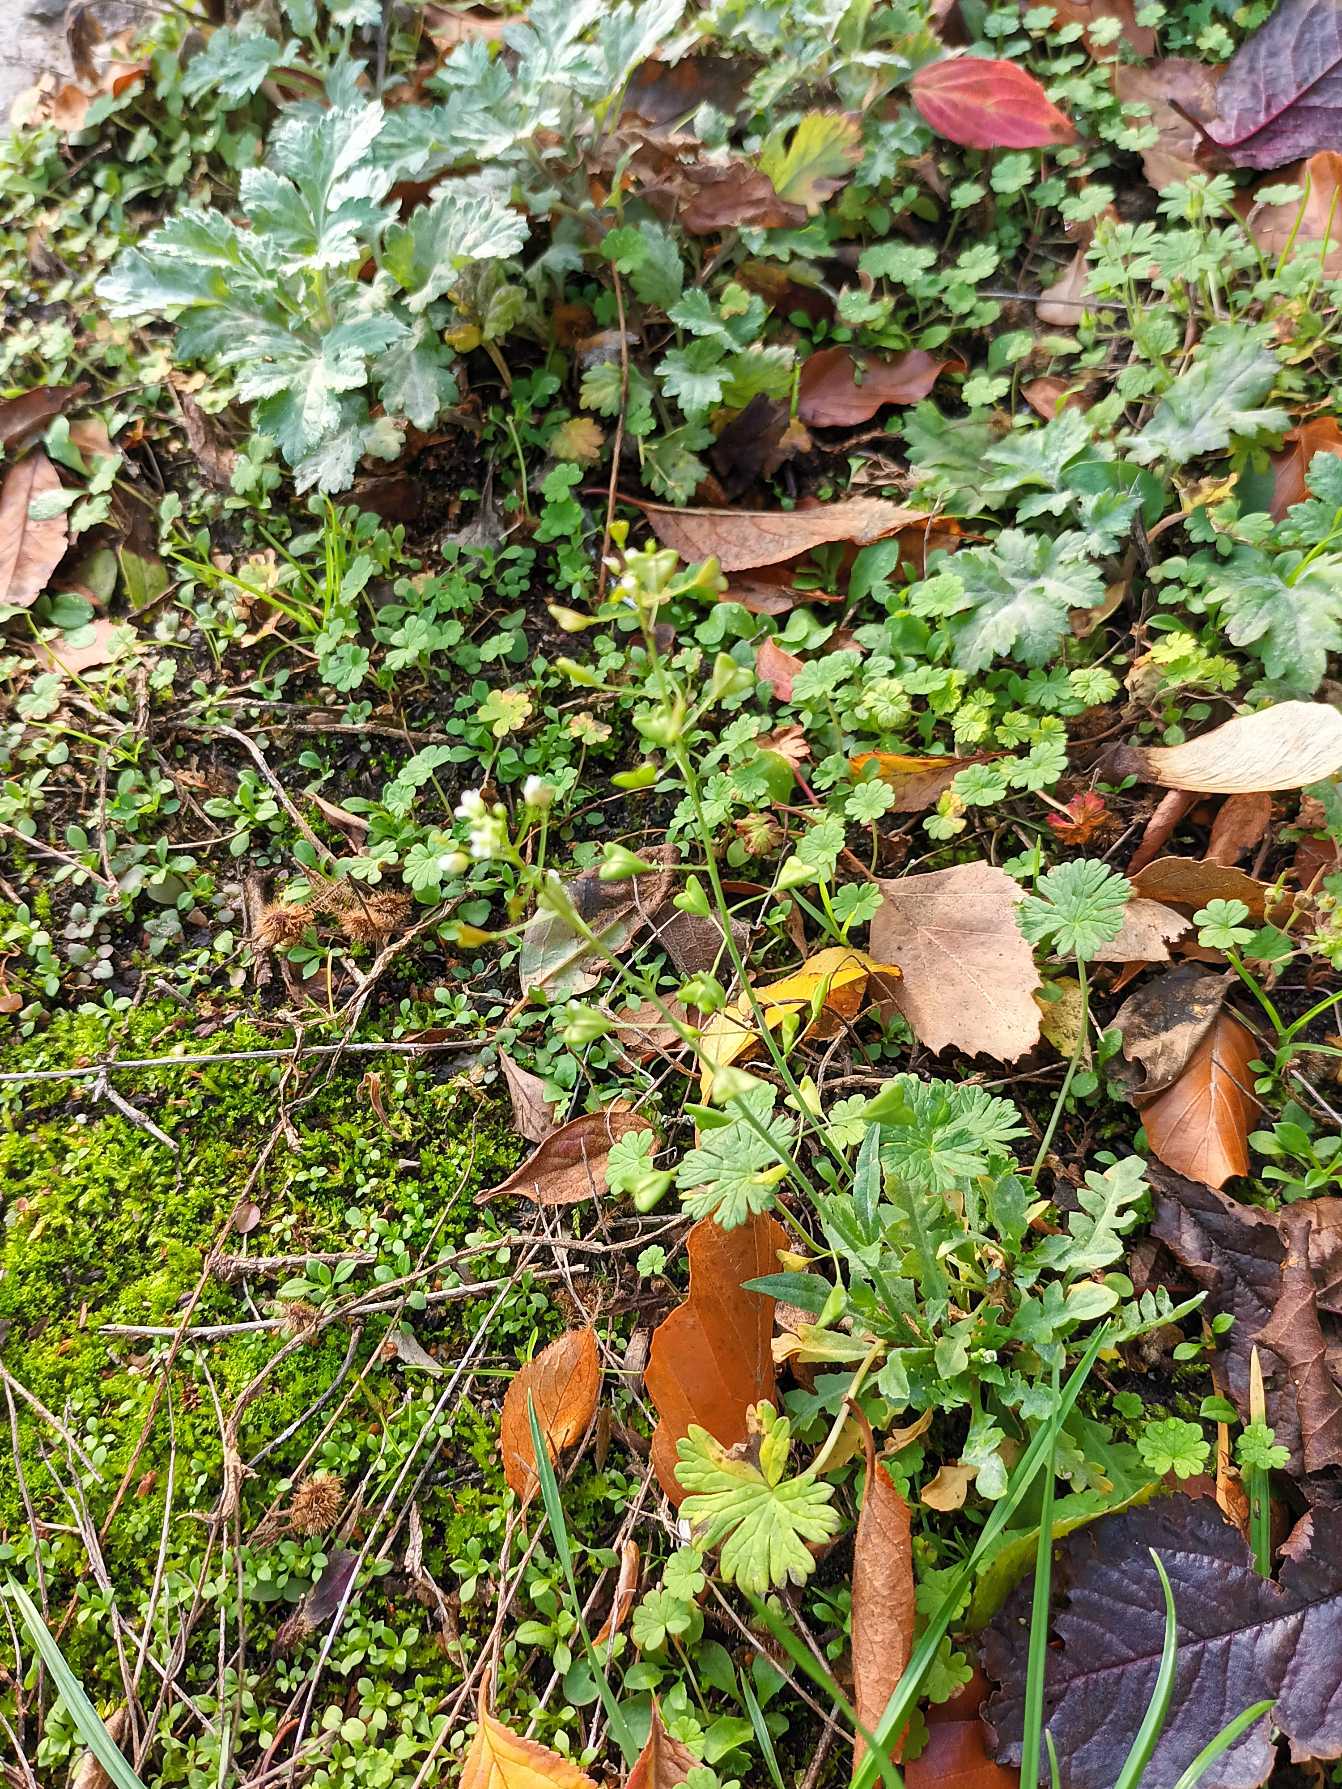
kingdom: Plantae
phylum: Tracheophyta
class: Magnoliopsida
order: Brassicales
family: Brassicaceae
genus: Capsella
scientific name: Capsella bursa-pastoris
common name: Hyrdetaske
